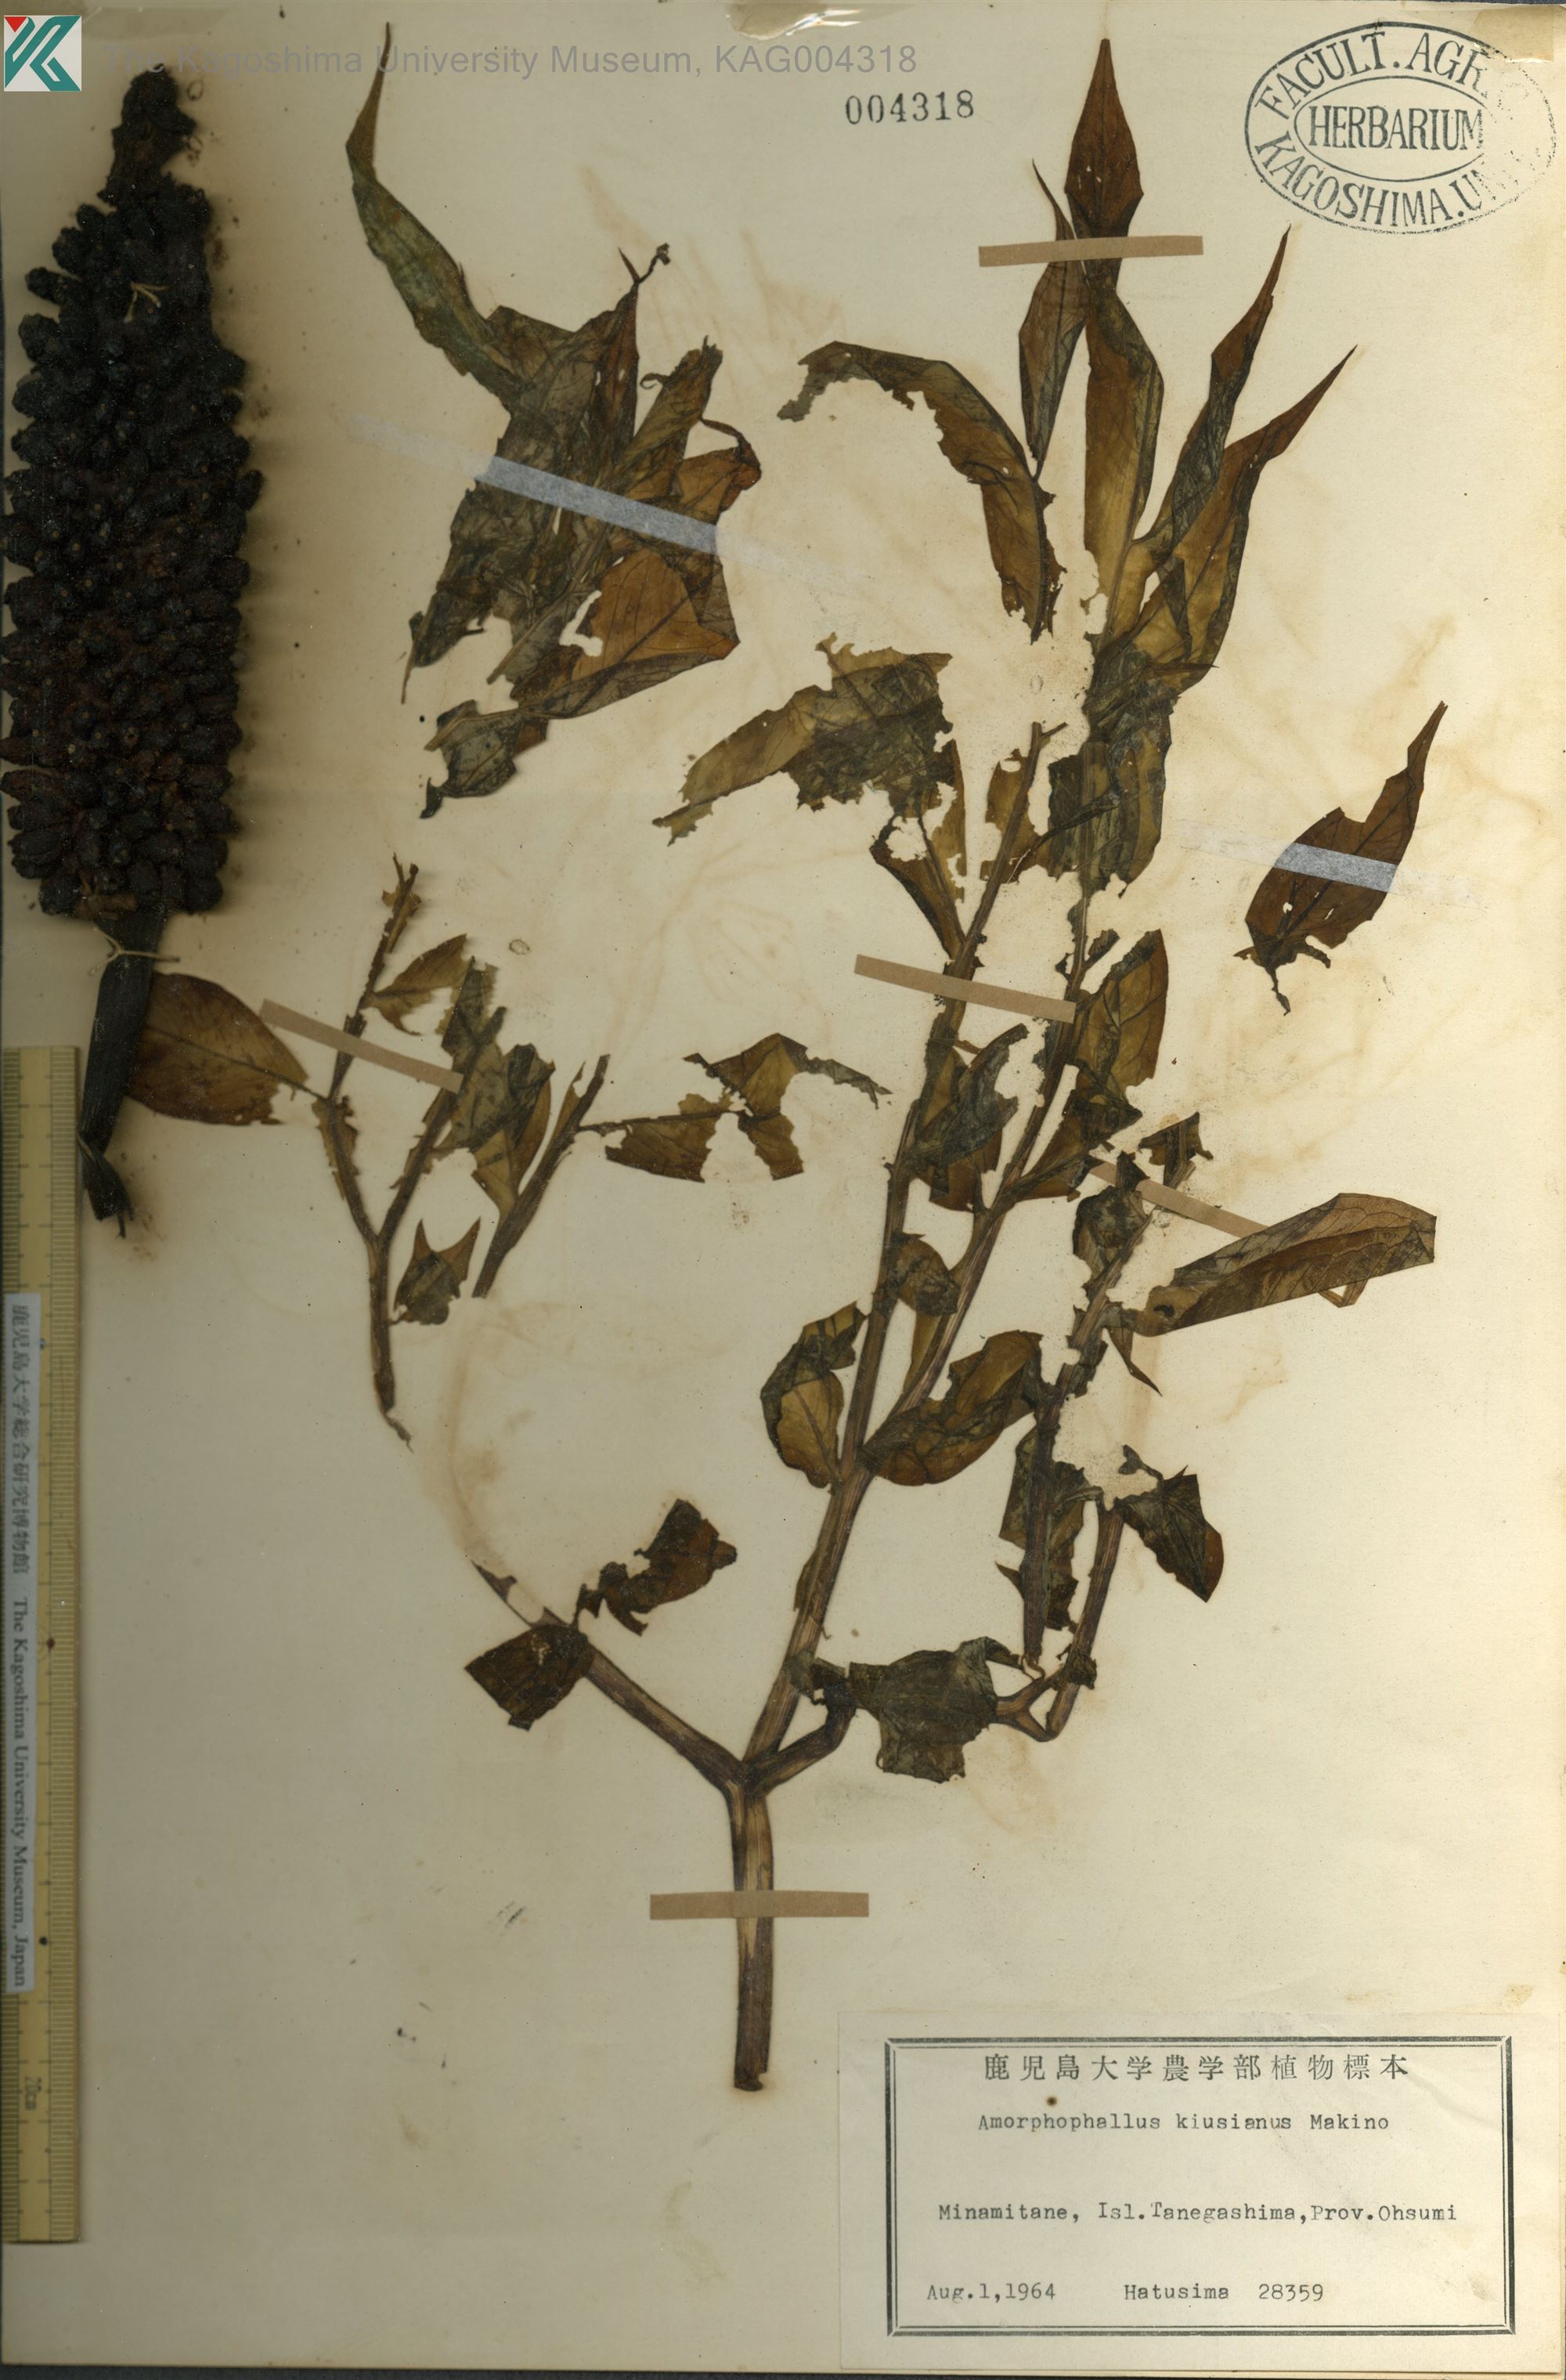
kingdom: Plantae
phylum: Tracheophyta
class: Liliopsida
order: Alismatales
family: Araceae
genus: Amorphophallus
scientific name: Amorphophallus kiusianus
